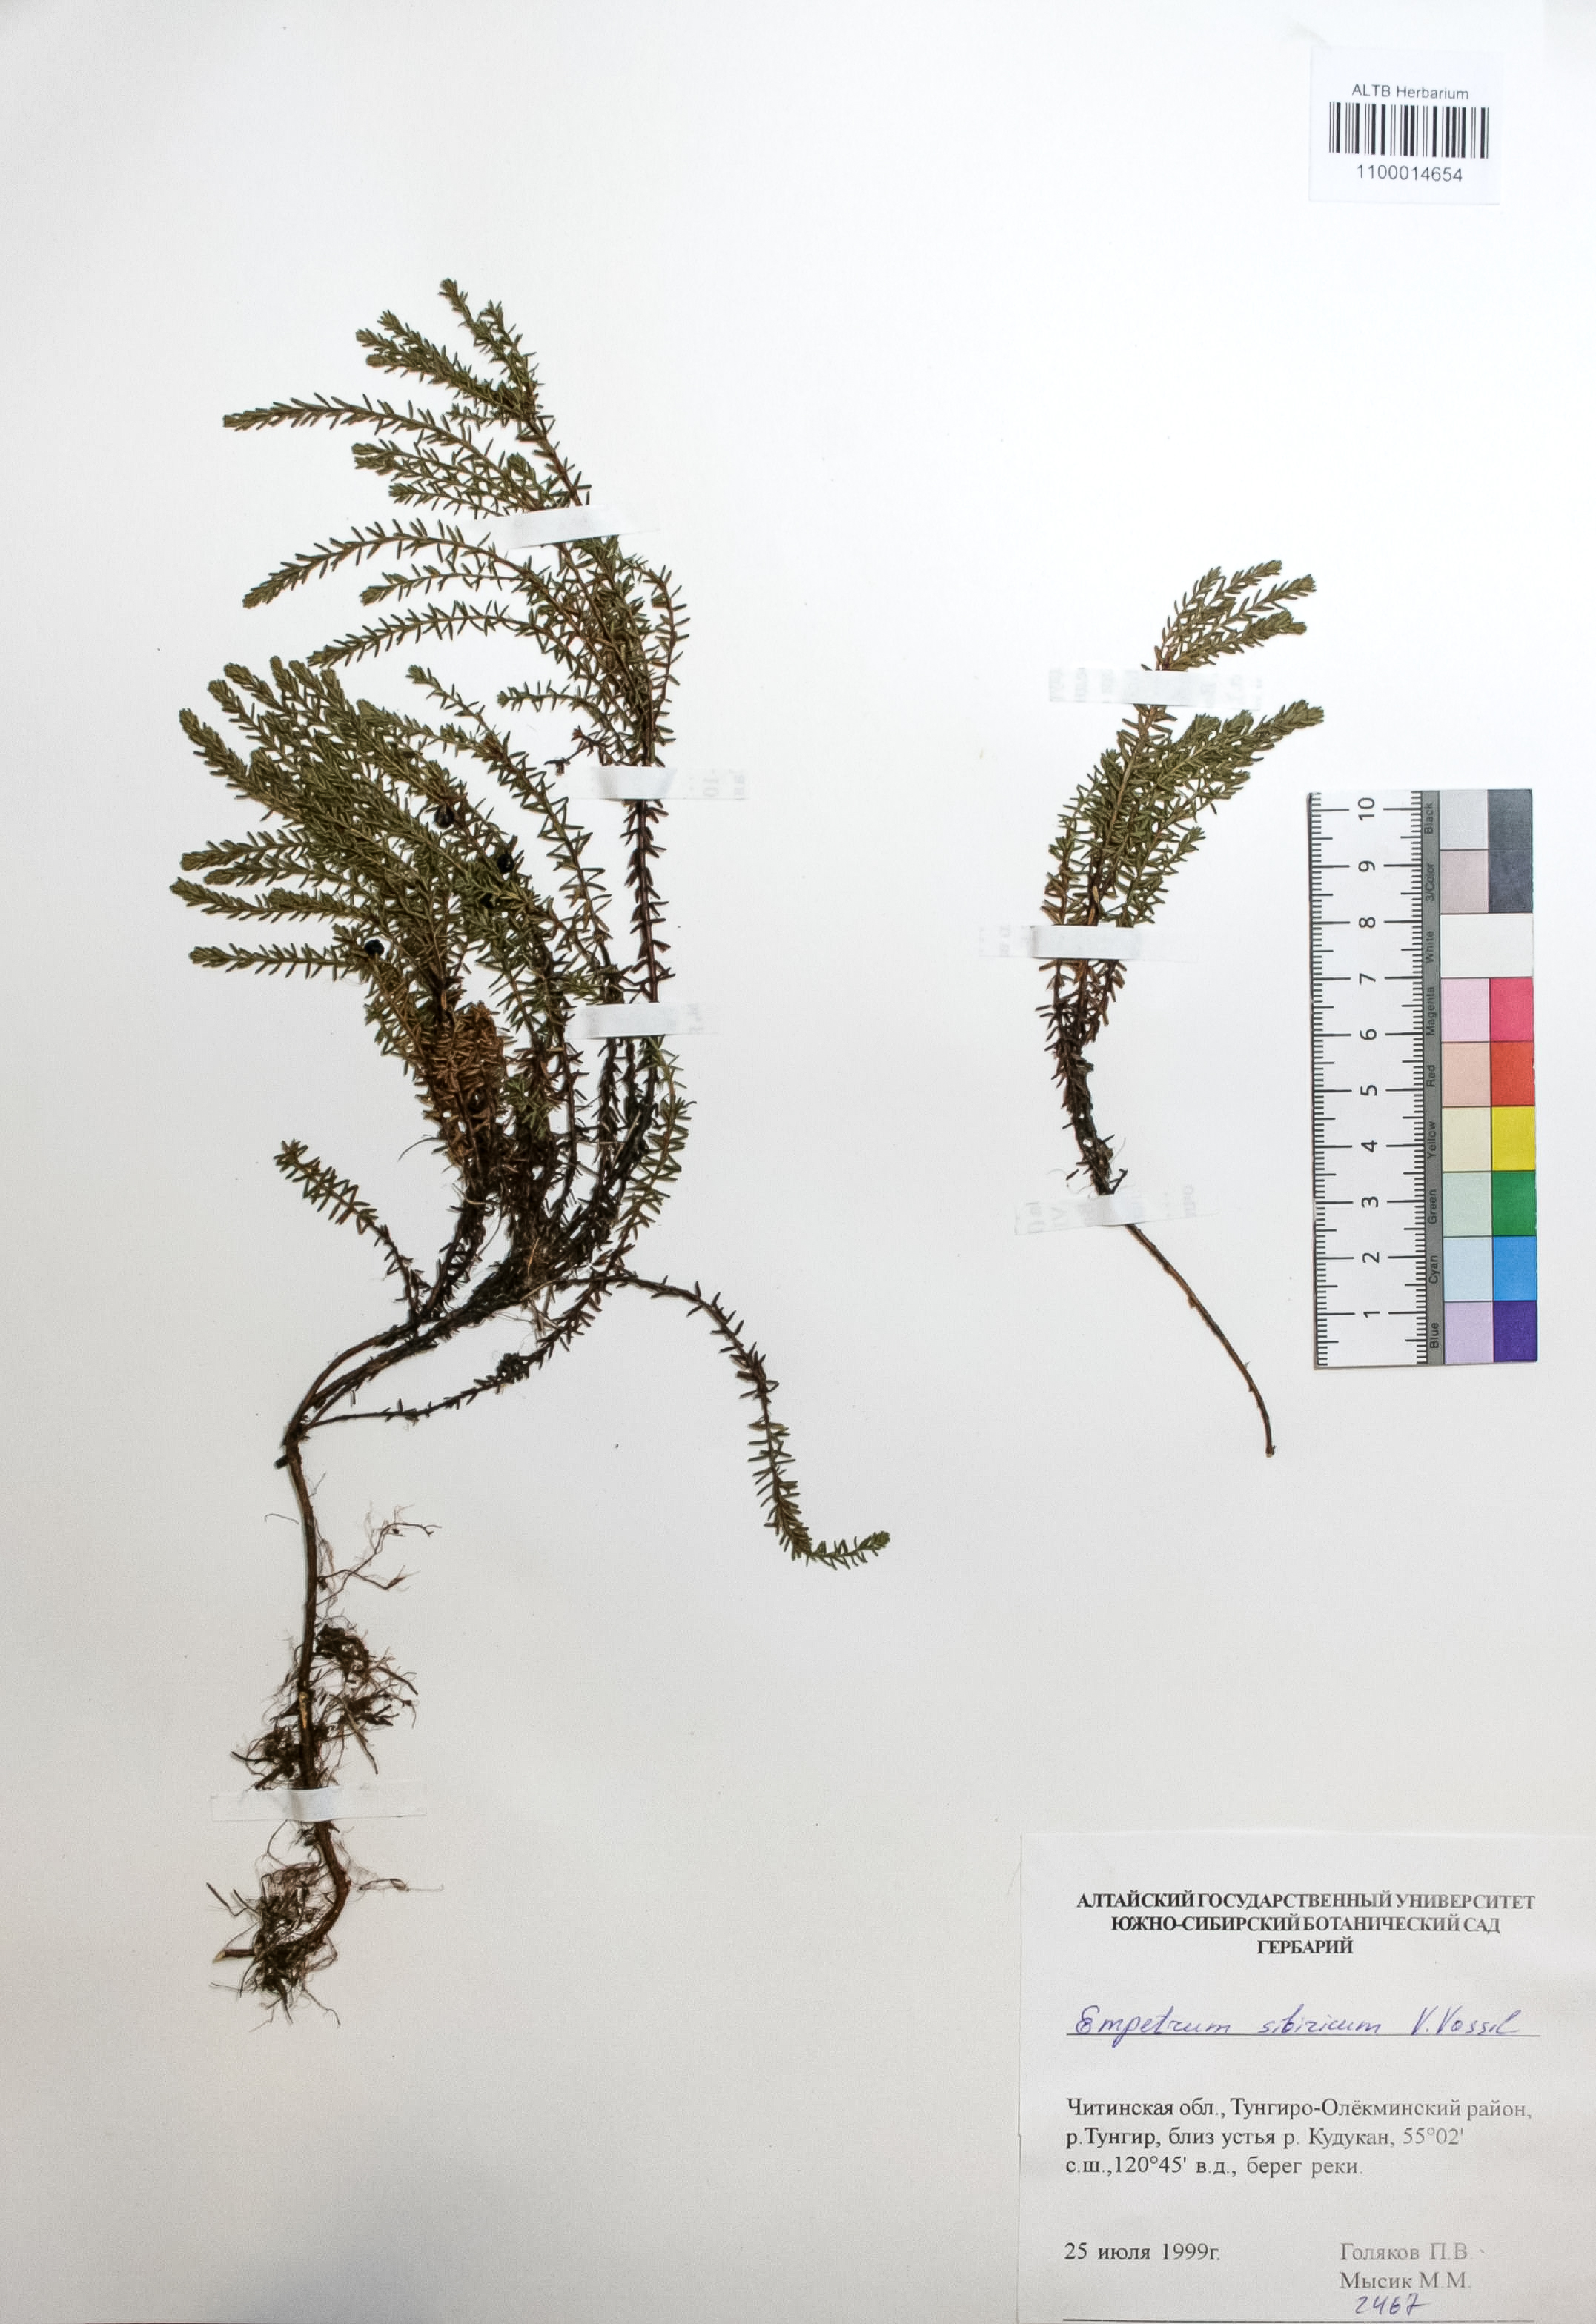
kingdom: Plantae
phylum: Tracheophyta
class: Magnoliopsida
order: Ericales
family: Ericaceae
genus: Empetrum
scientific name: Empetrum nigrum
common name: Black crowberry
